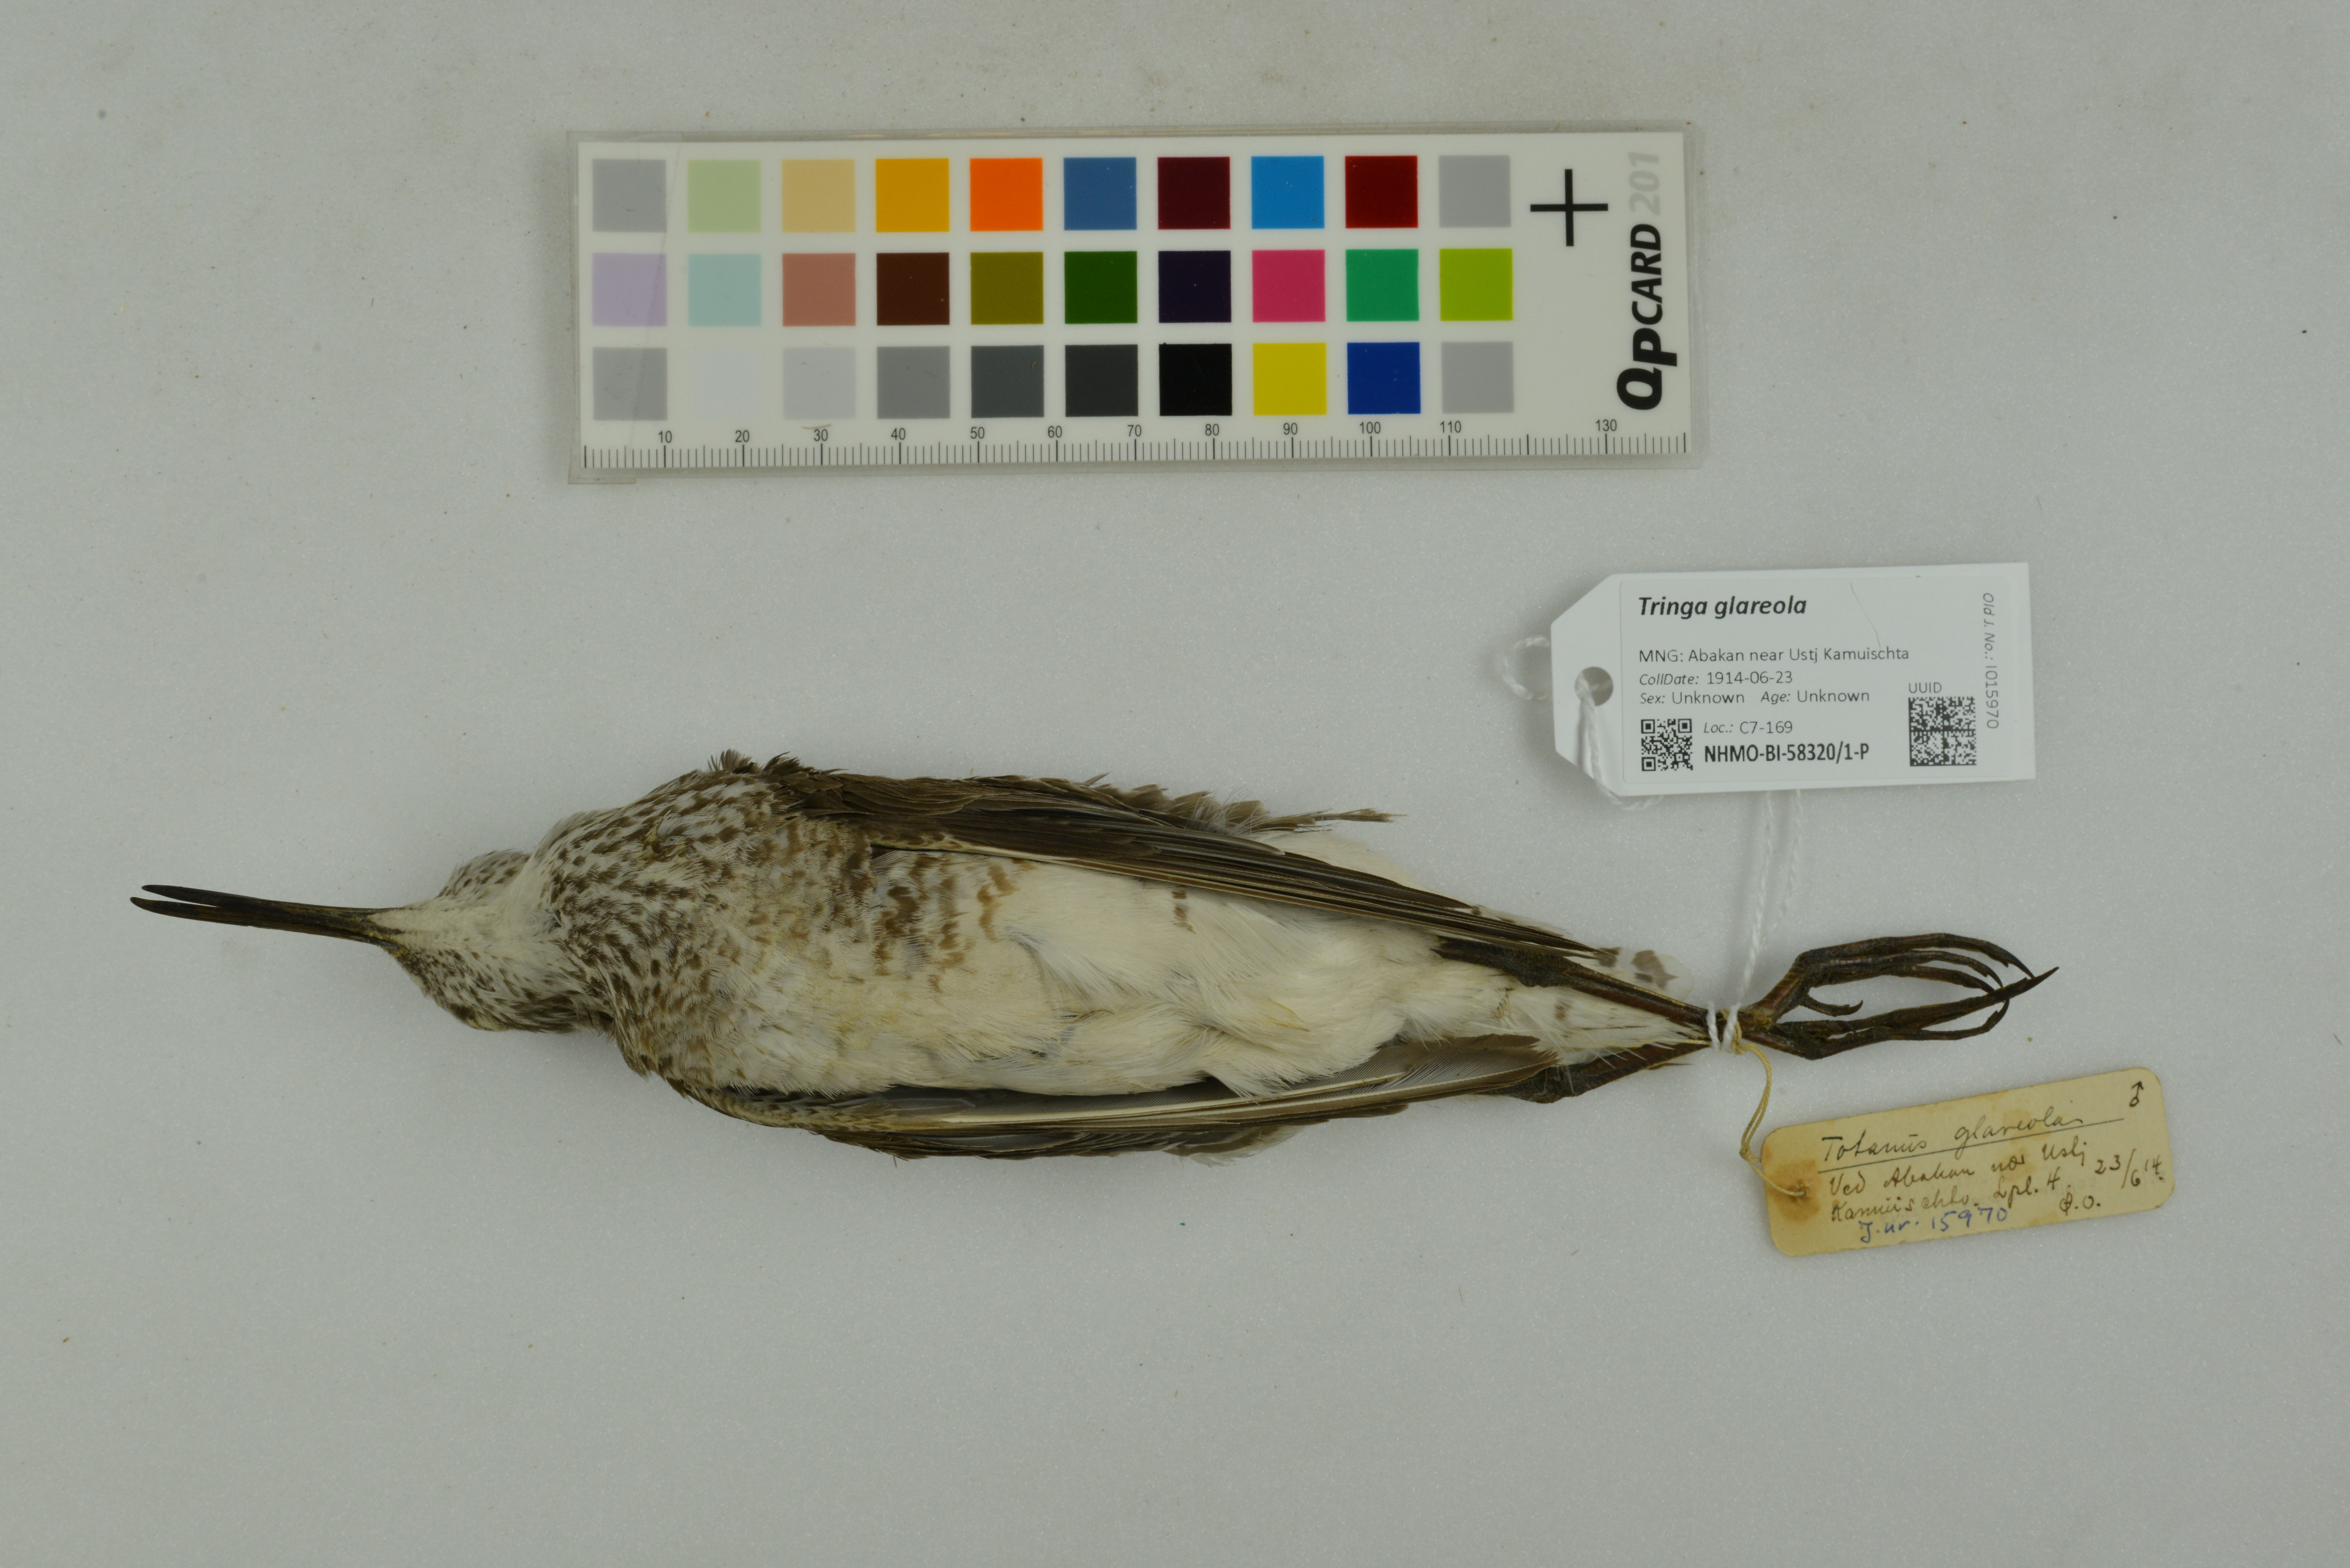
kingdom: Animalia
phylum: Chordata
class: Aves
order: Charadriiformes
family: Scolopacidae
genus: Tringa
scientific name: Tringa glareola
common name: Wood sandpiper
